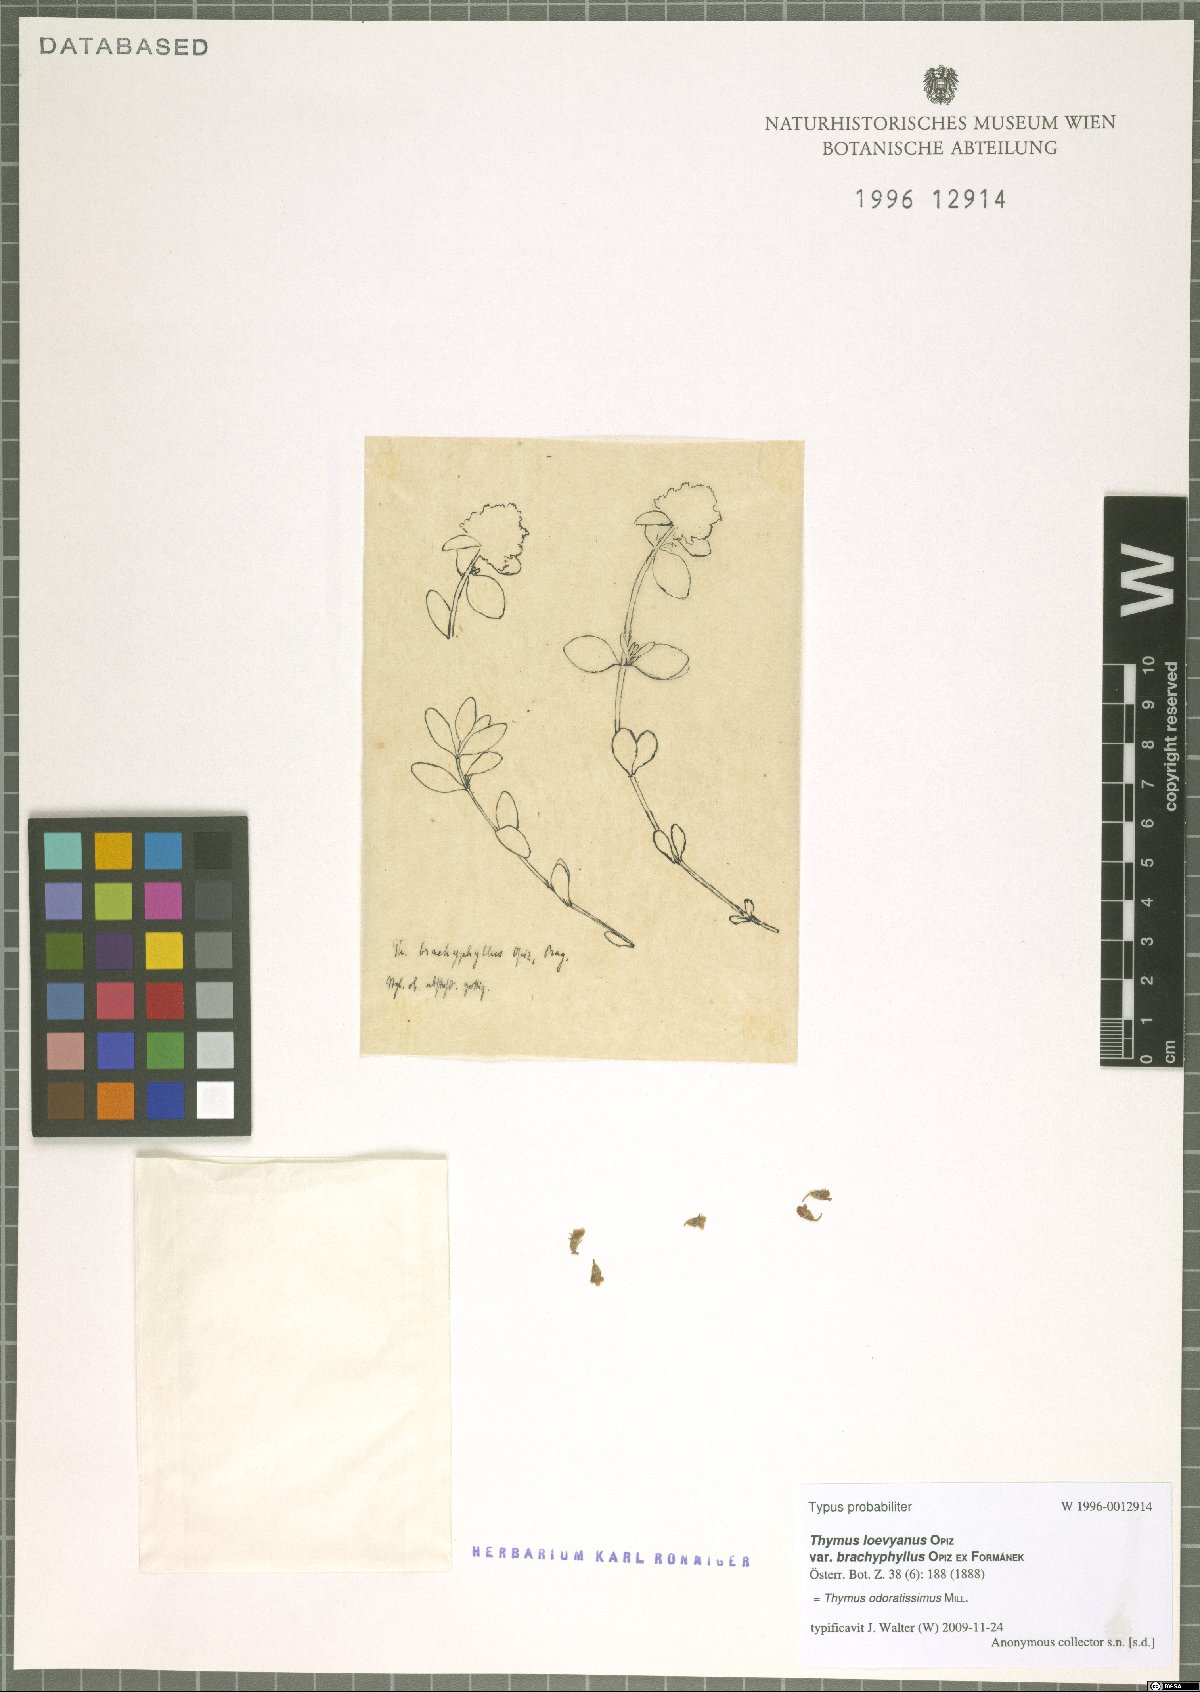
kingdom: Plantae
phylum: Tracheophyta
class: Magnoliopsida
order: Lamiales
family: Lamiaceae
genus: Thymus
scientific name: Thymus odoratissimus
